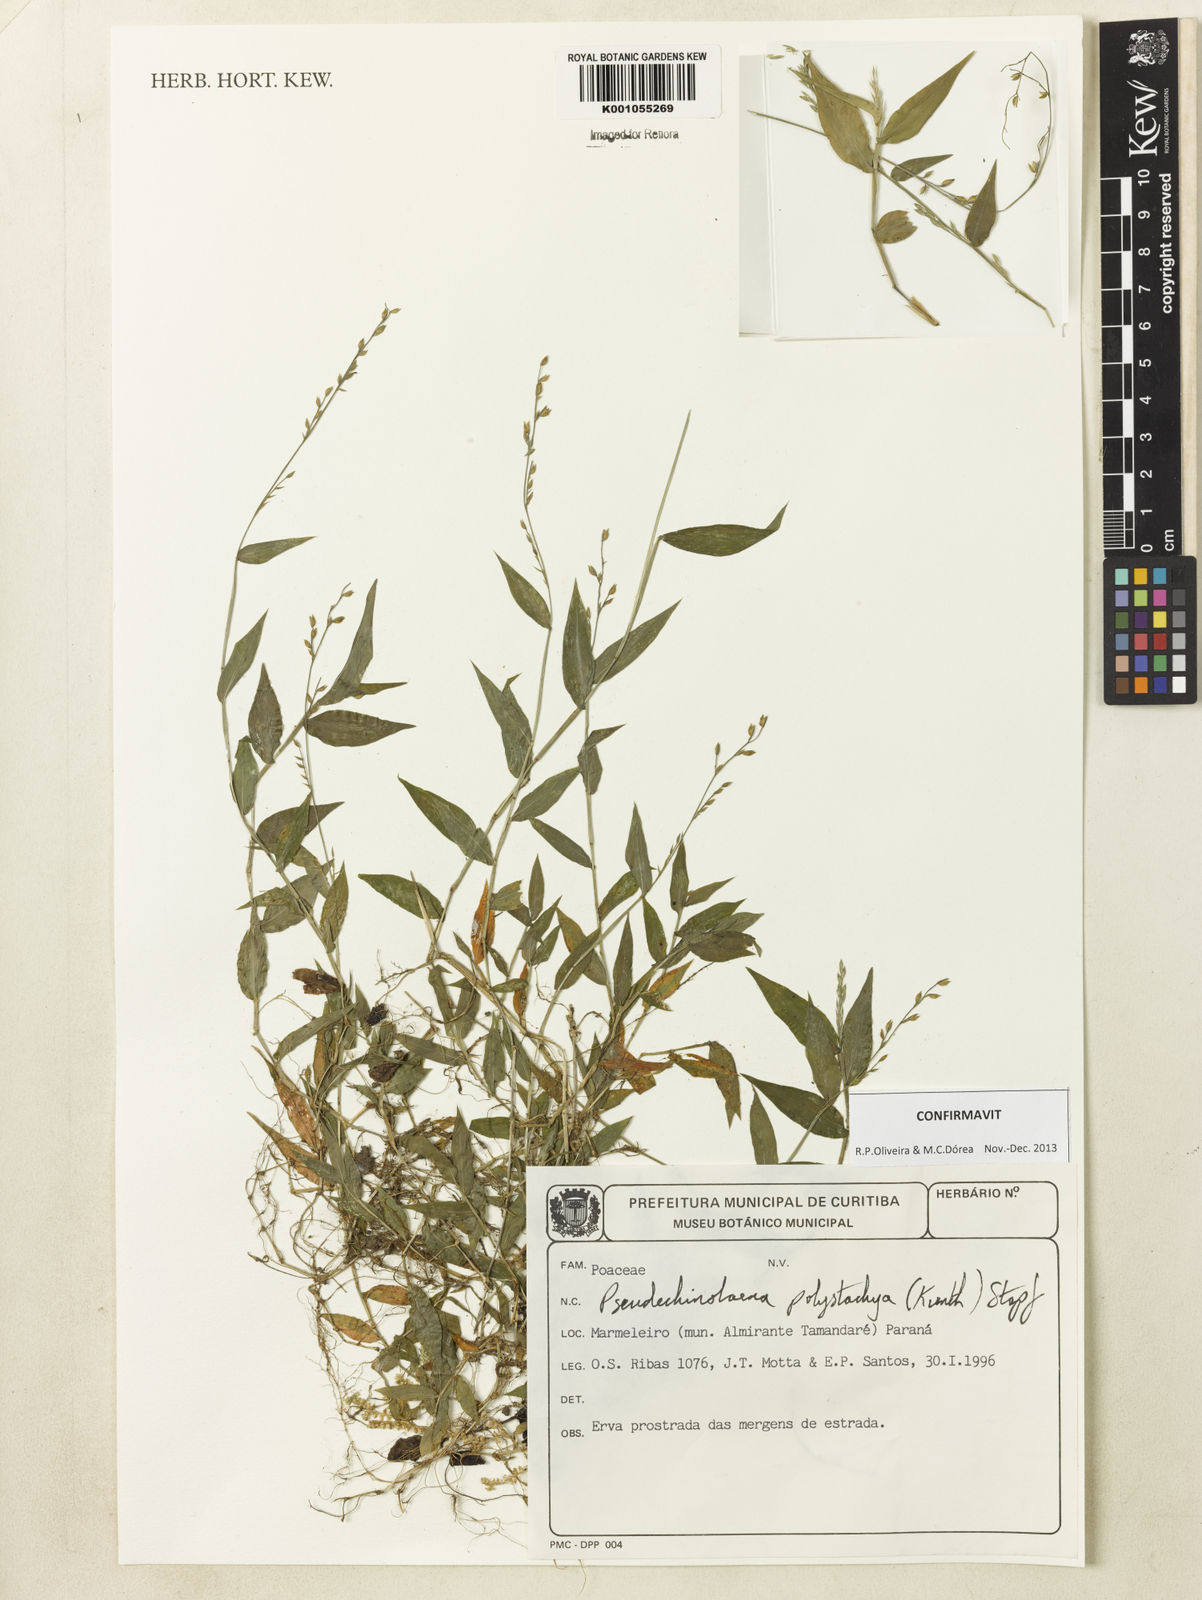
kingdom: Plantae
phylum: Tracheophyta
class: Liliopsida
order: Poales
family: Poaceae
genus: Pseudechinolaena
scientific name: Pseudechinolaena polystachya
